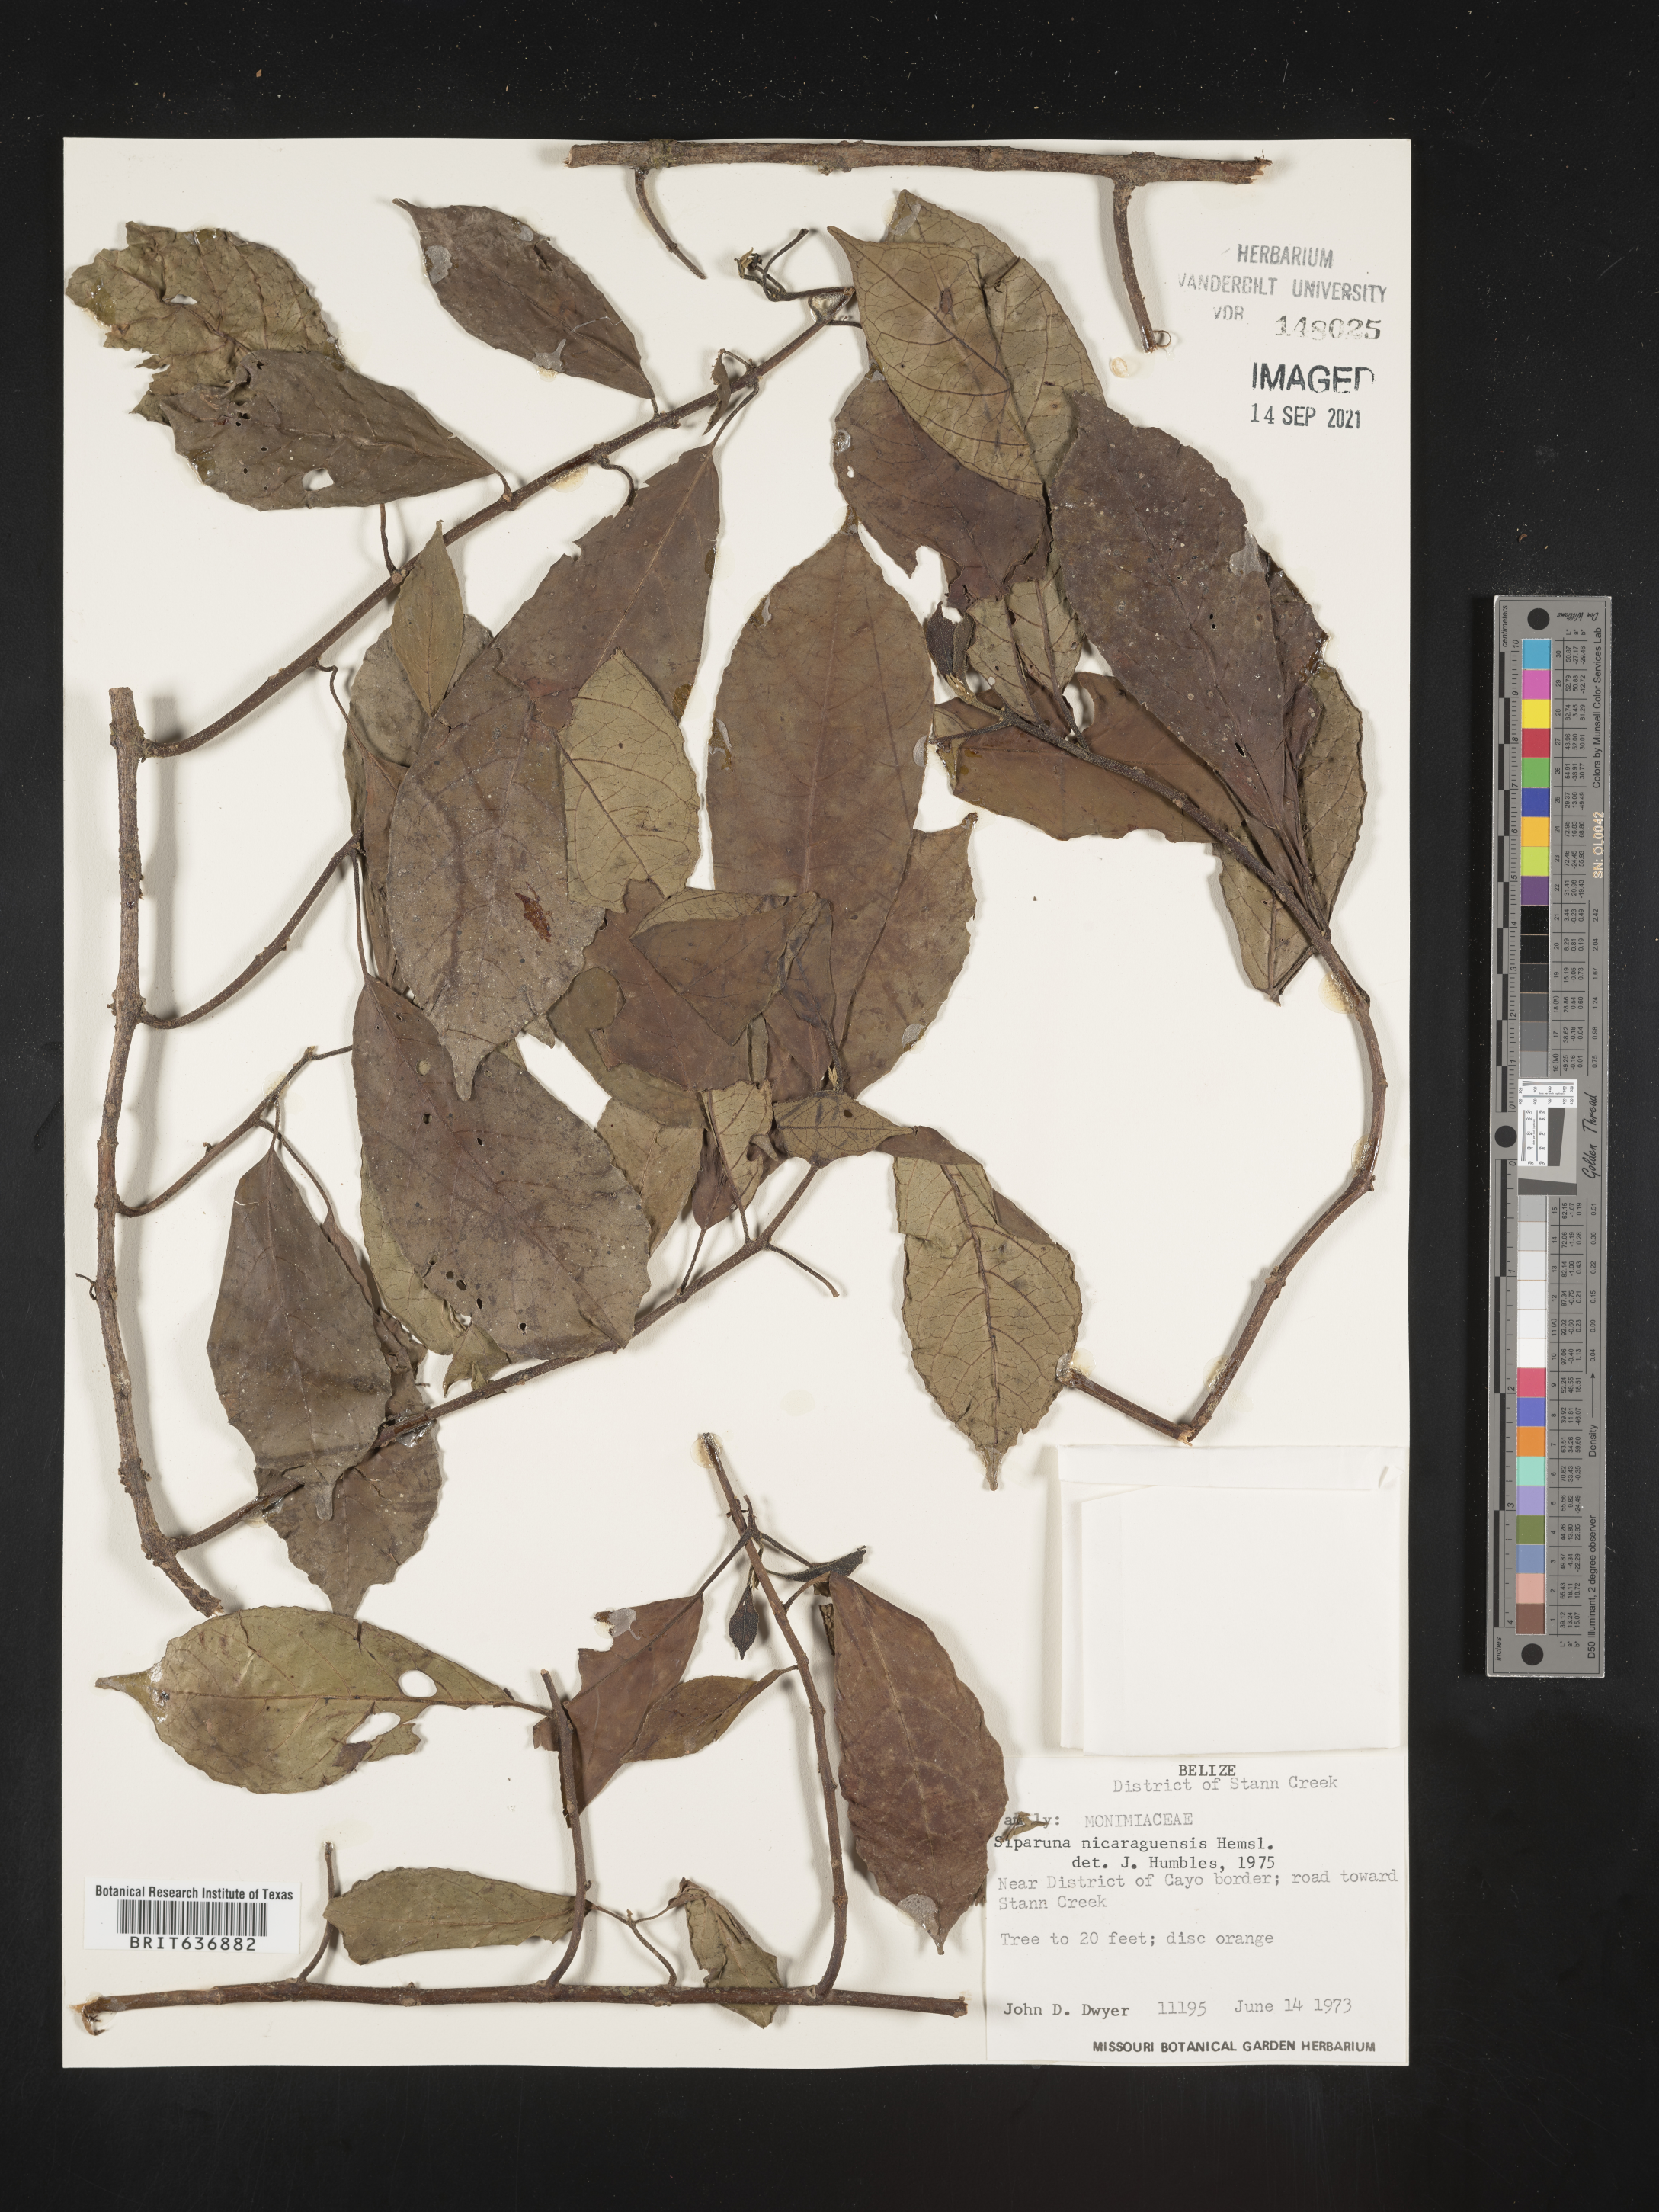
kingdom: Plantae
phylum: Tracheophyta
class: Magnoliopsida
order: Laurales
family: Siparunaceae
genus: Siparuna
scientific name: Siparuna
